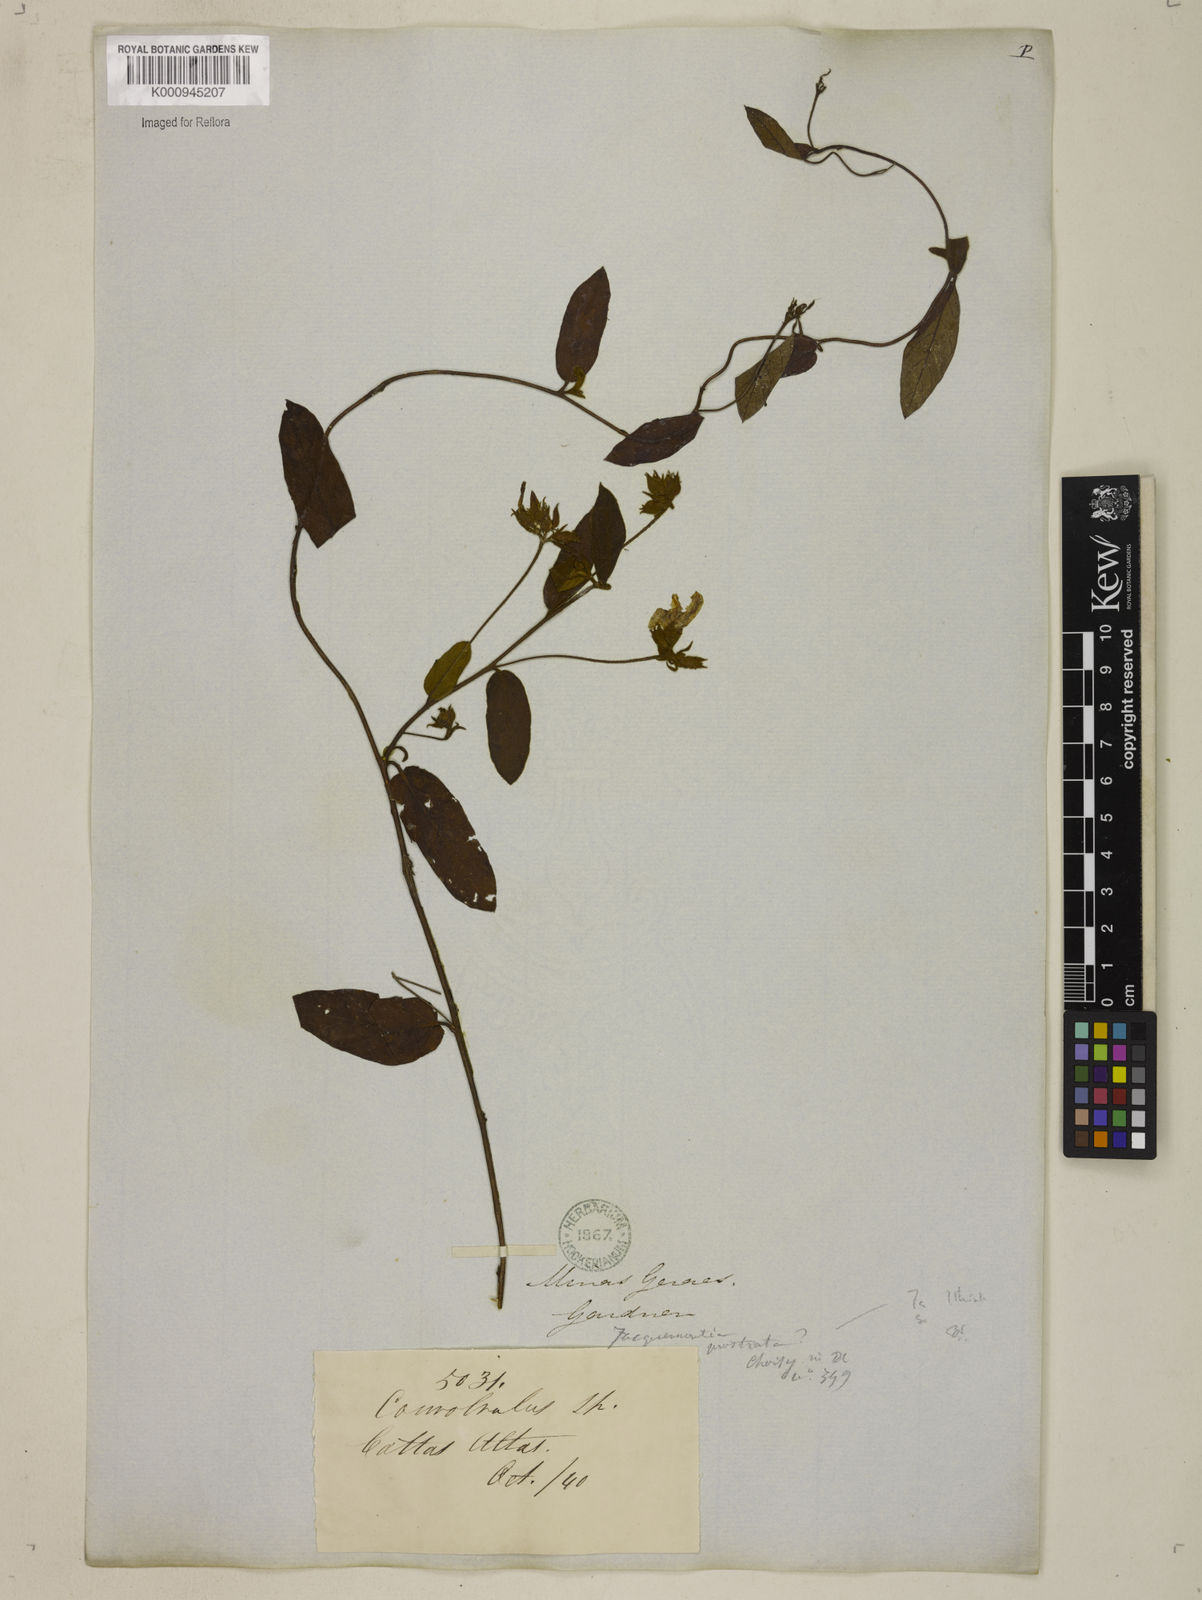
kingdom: Plantae
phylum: Tracheophyta
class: Magnoliopsida
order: Solanales
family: Convolvulaceae
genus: Jacquemontia
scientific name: Jacquemontia prostrata
